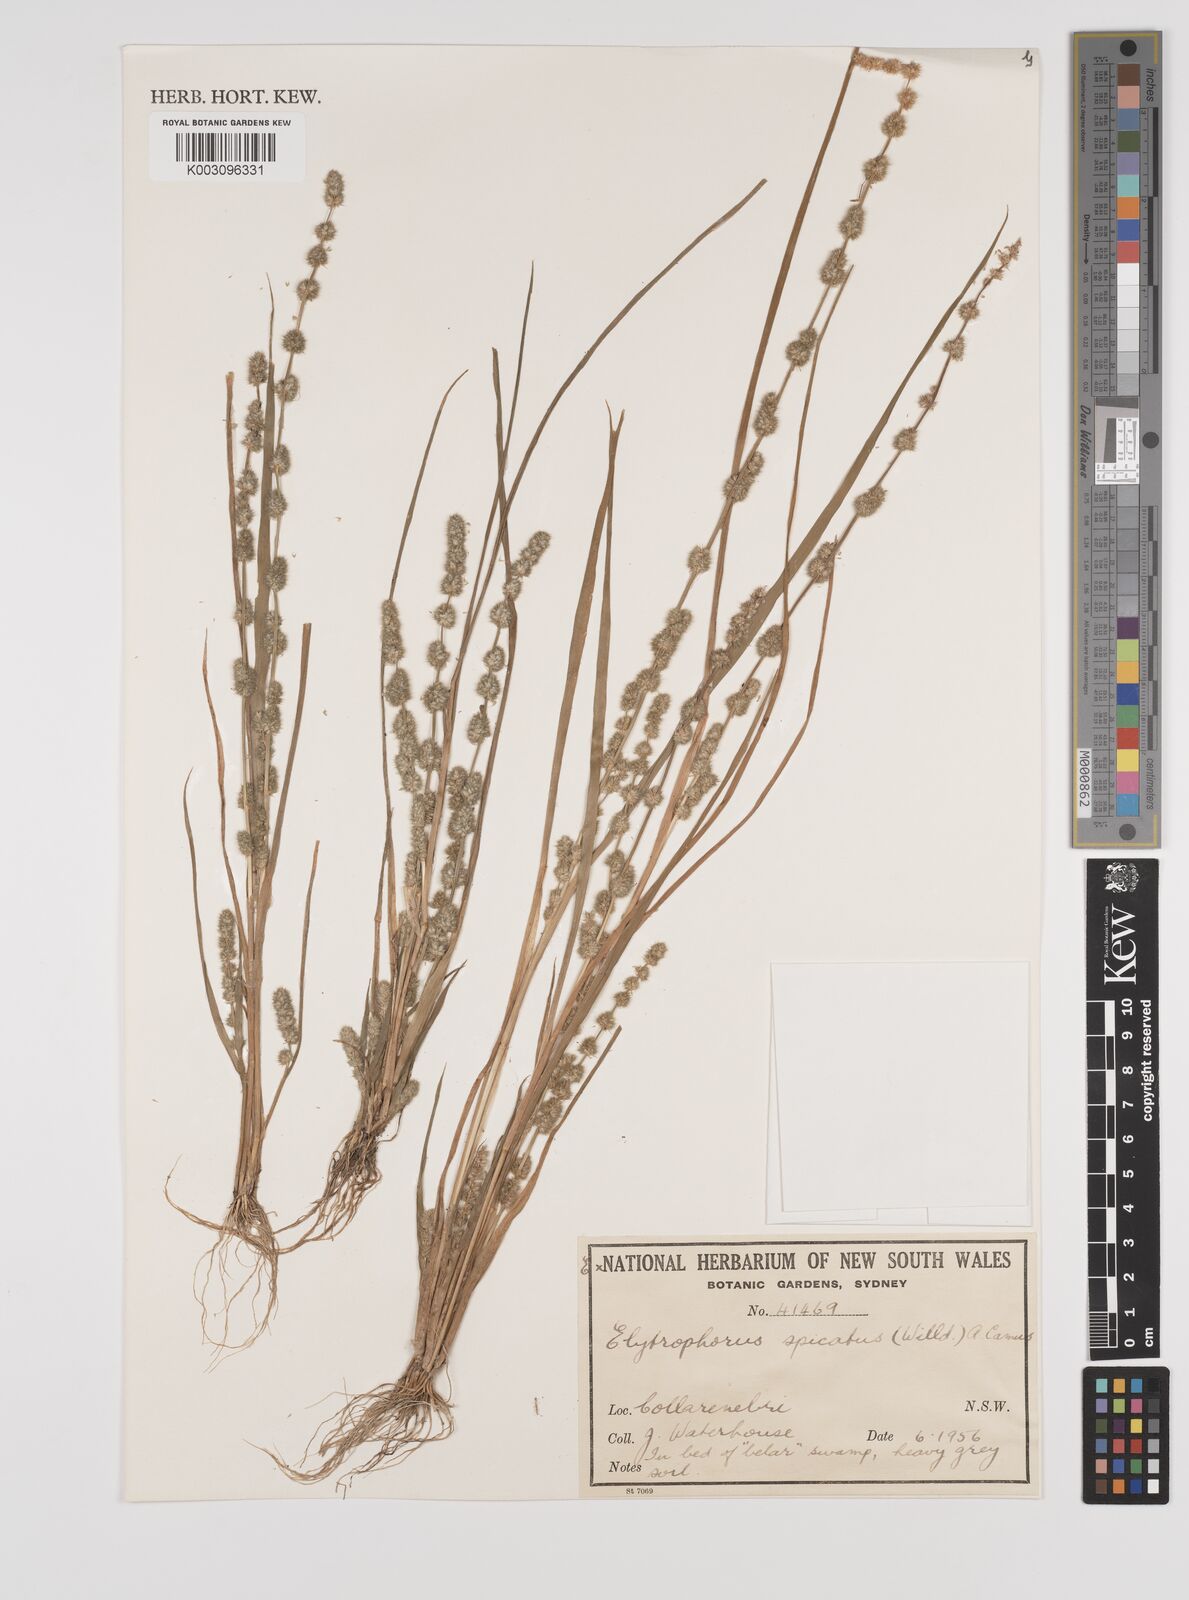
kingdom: Plantae
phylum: Tracheophyta
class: Liliopsida
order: Poales
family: Poaceae
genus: Elytrophorus
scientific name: Elytrophorus spicatus
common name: Spike grass
